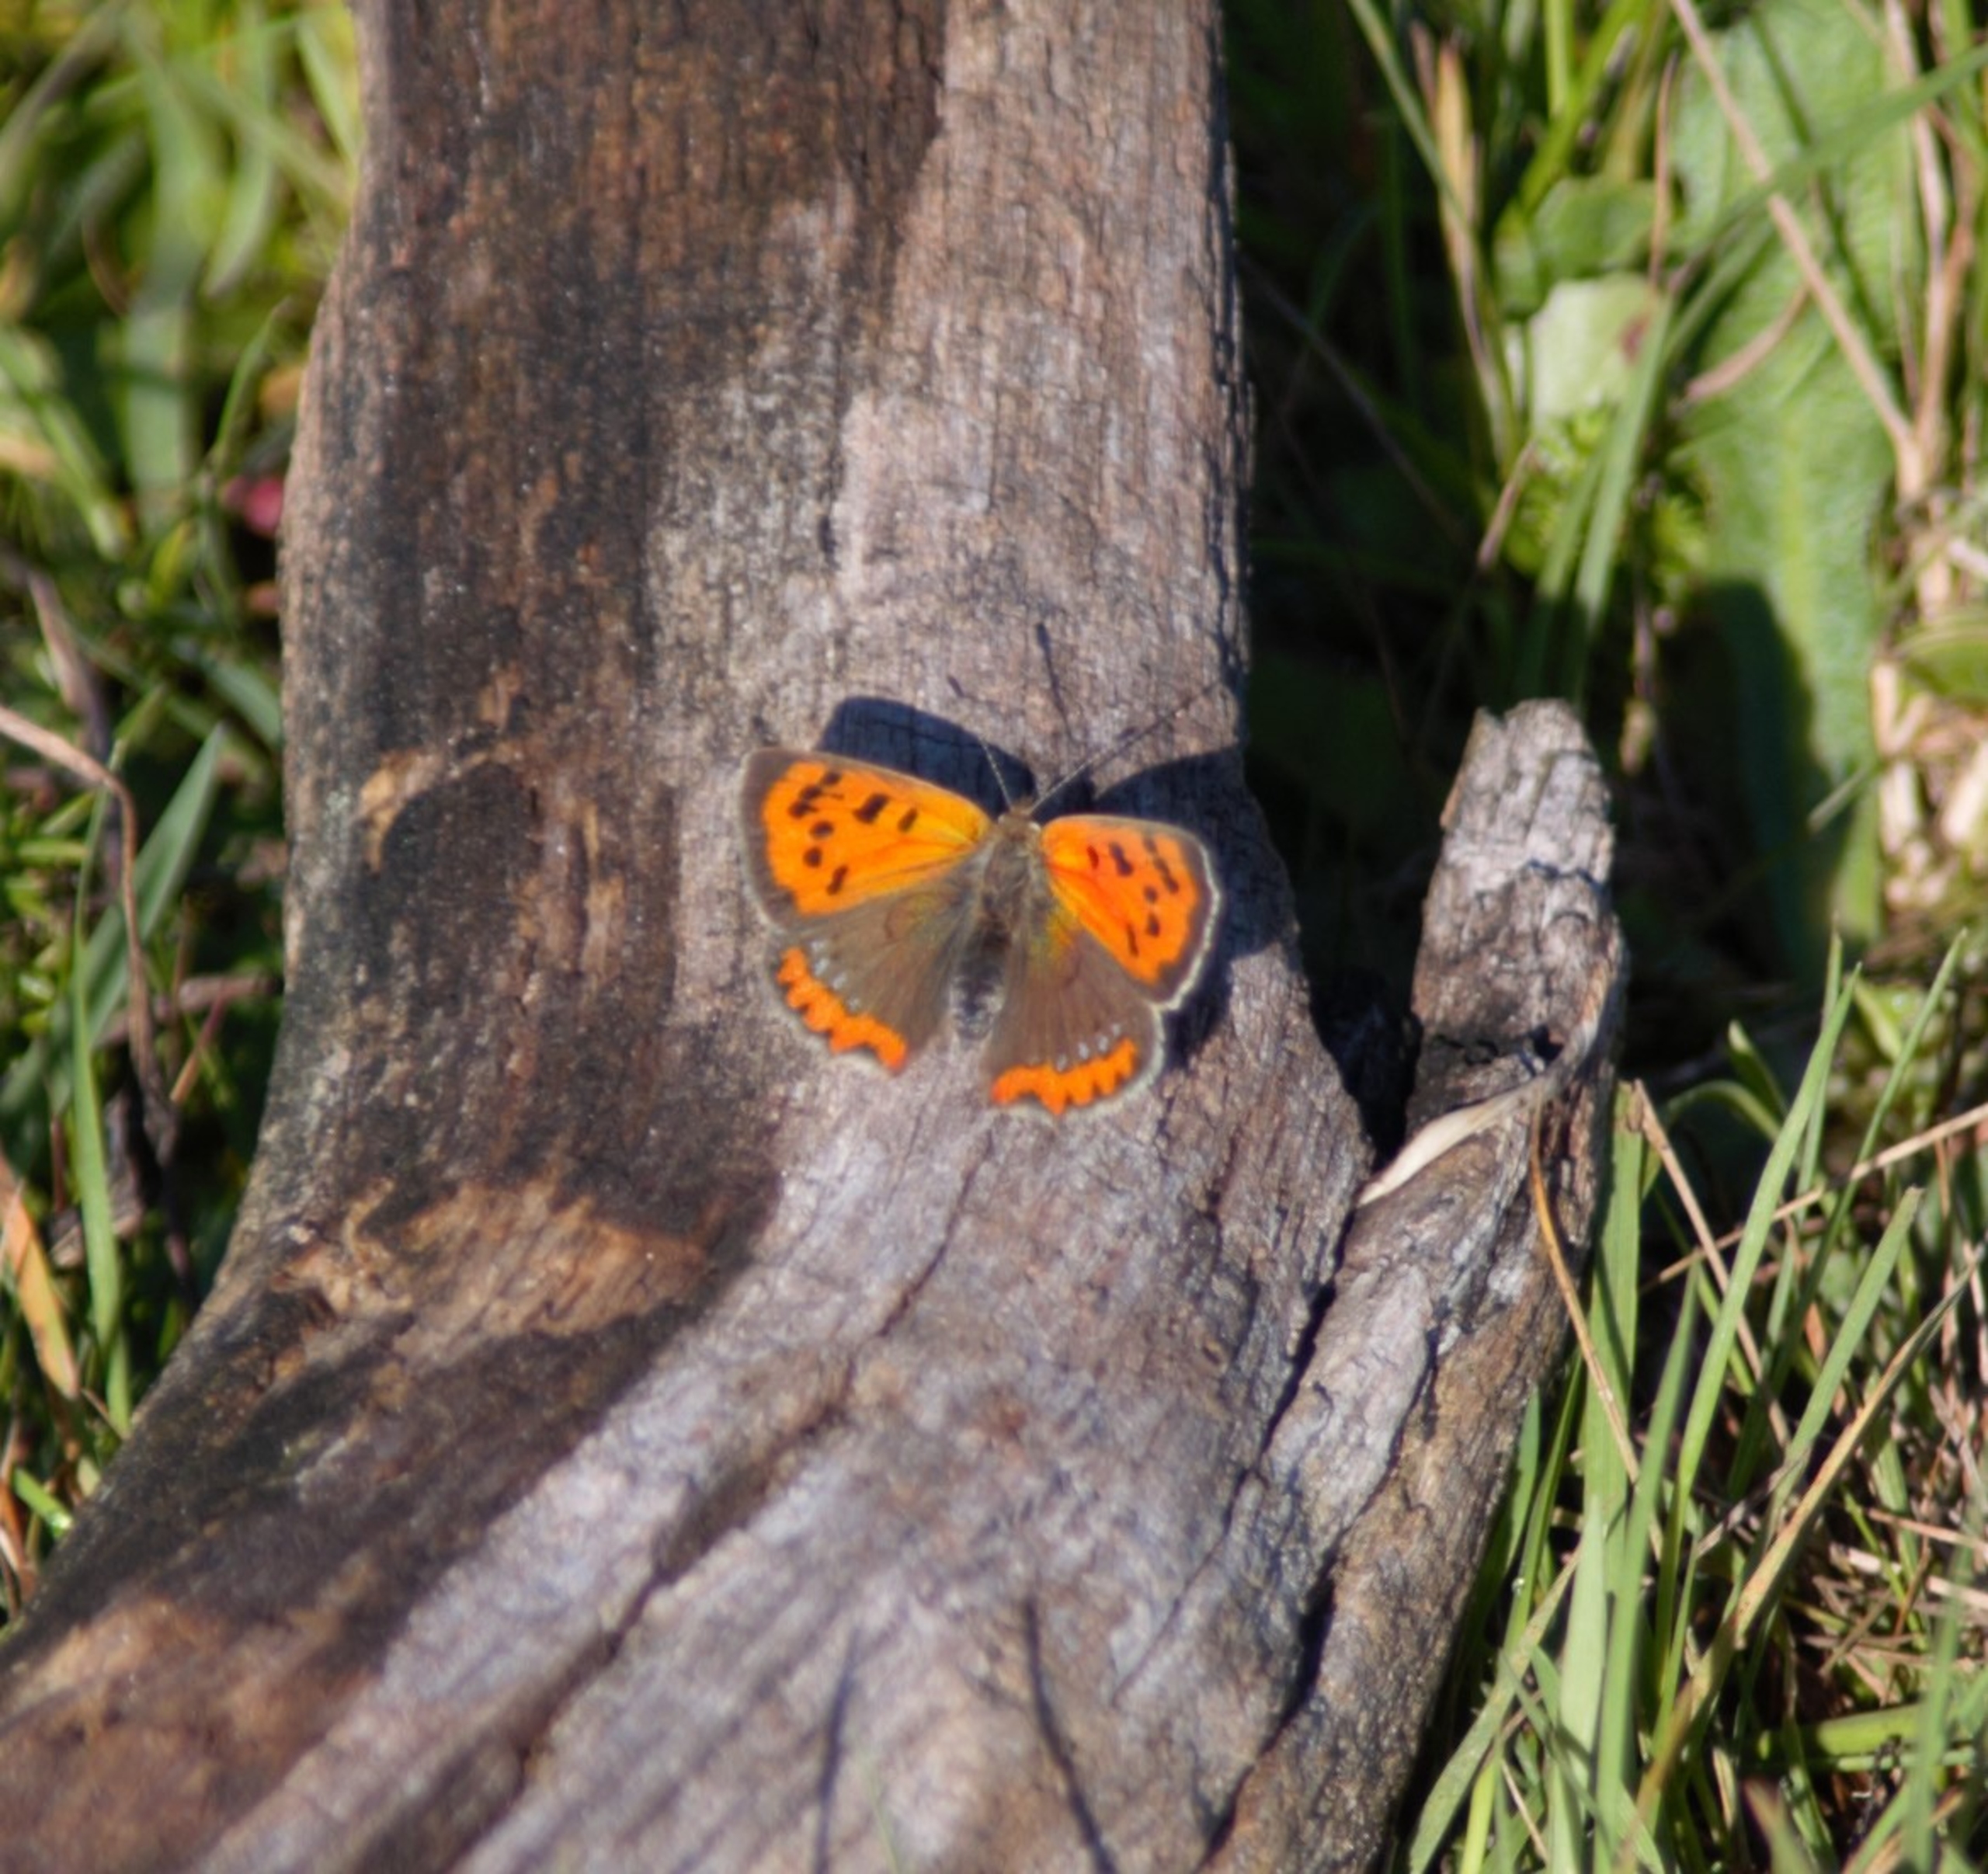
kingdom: Animalia
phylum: Arthropoda
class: Insecta
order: Lepidoptera
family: Lycaenidae
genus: Lycaena
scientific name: Lycaena phlaeas
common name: Lille ildfugl
